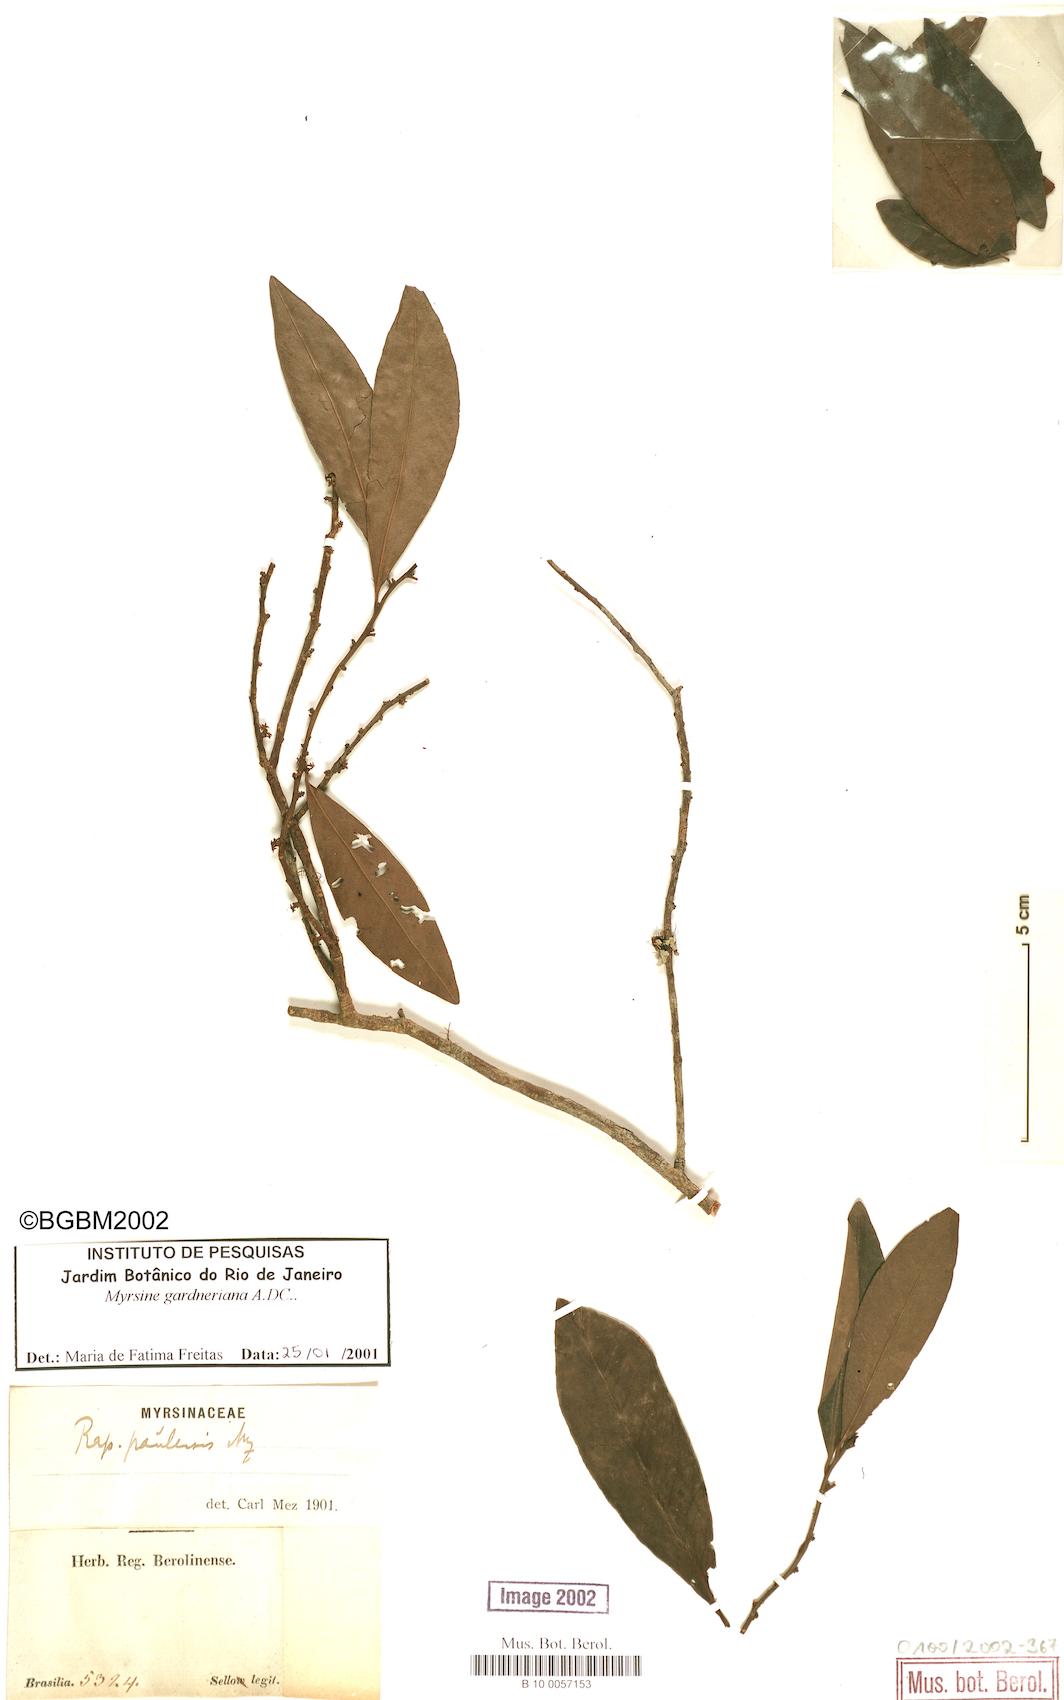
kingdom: Plantae
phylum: Tracheophyta
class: Magnoliopsida
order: Ericales
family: Primulaceae
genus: Myrsine
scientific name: Myrsine gardneriana
